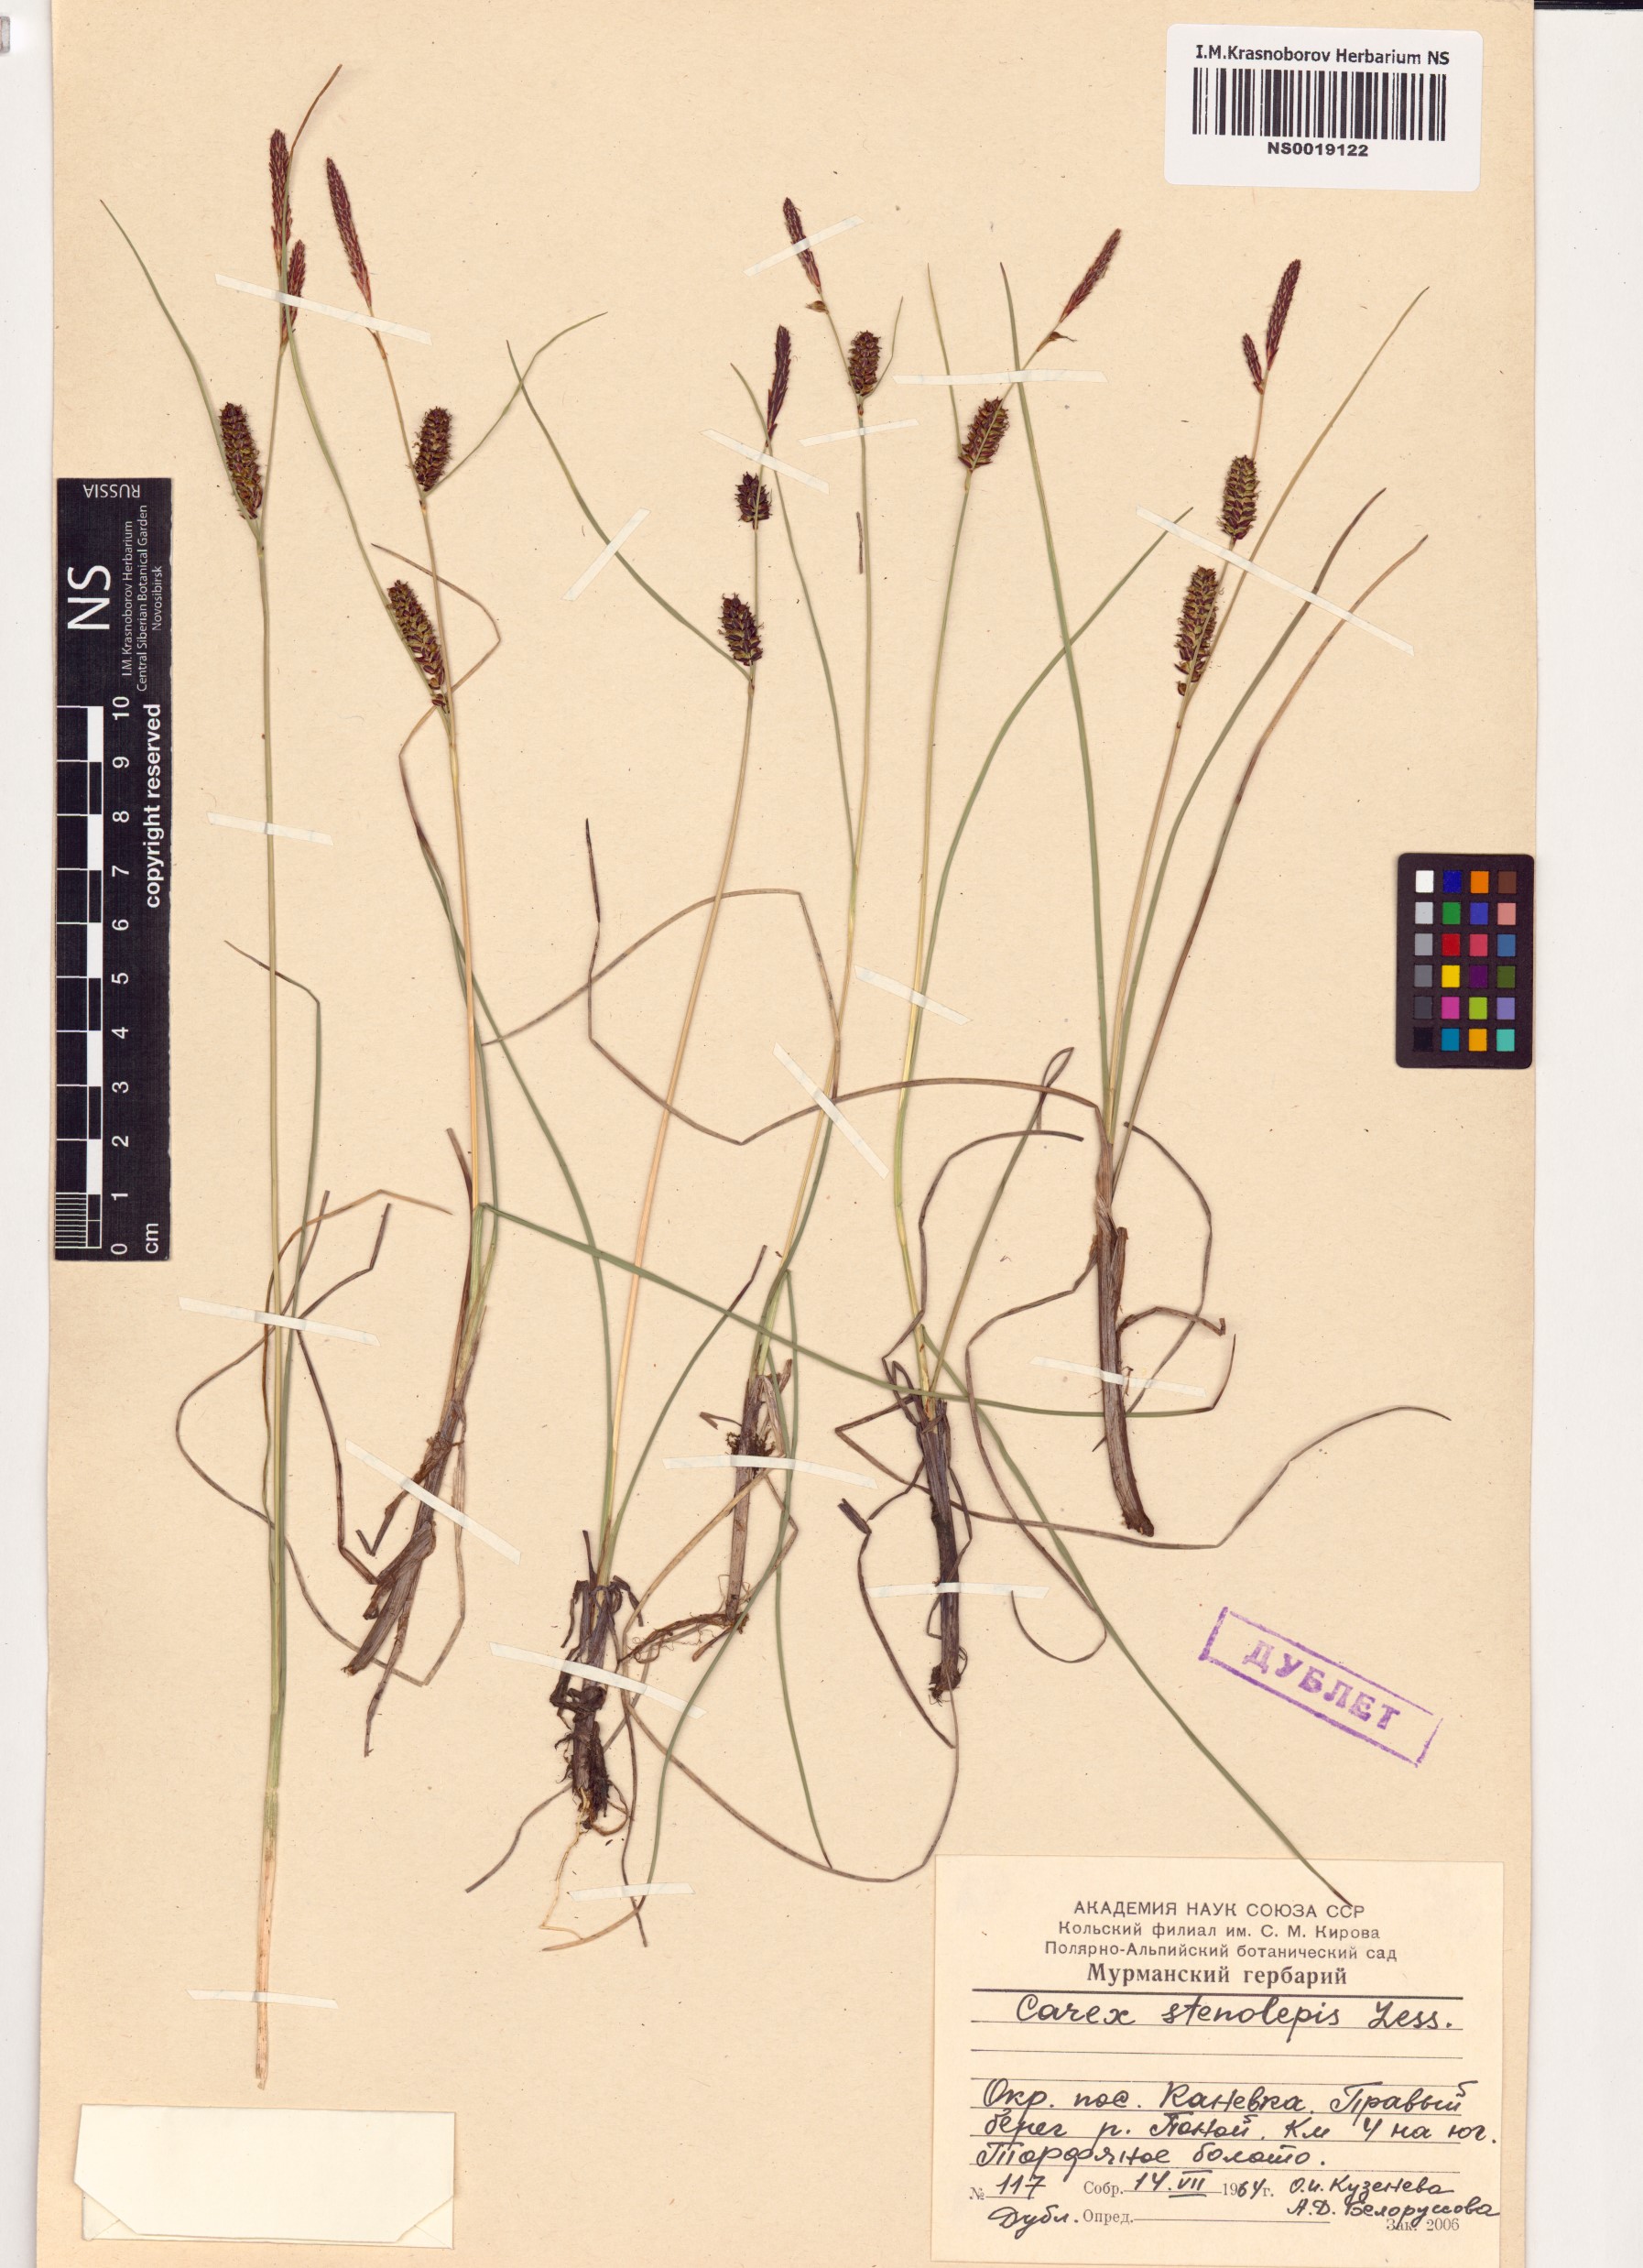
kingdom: Plantae
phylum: Tracheophyta
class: Liliopsida
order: Poales
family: Cyperaceae
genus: Carex
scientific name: Carex rostrata
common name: Bottle sedge
